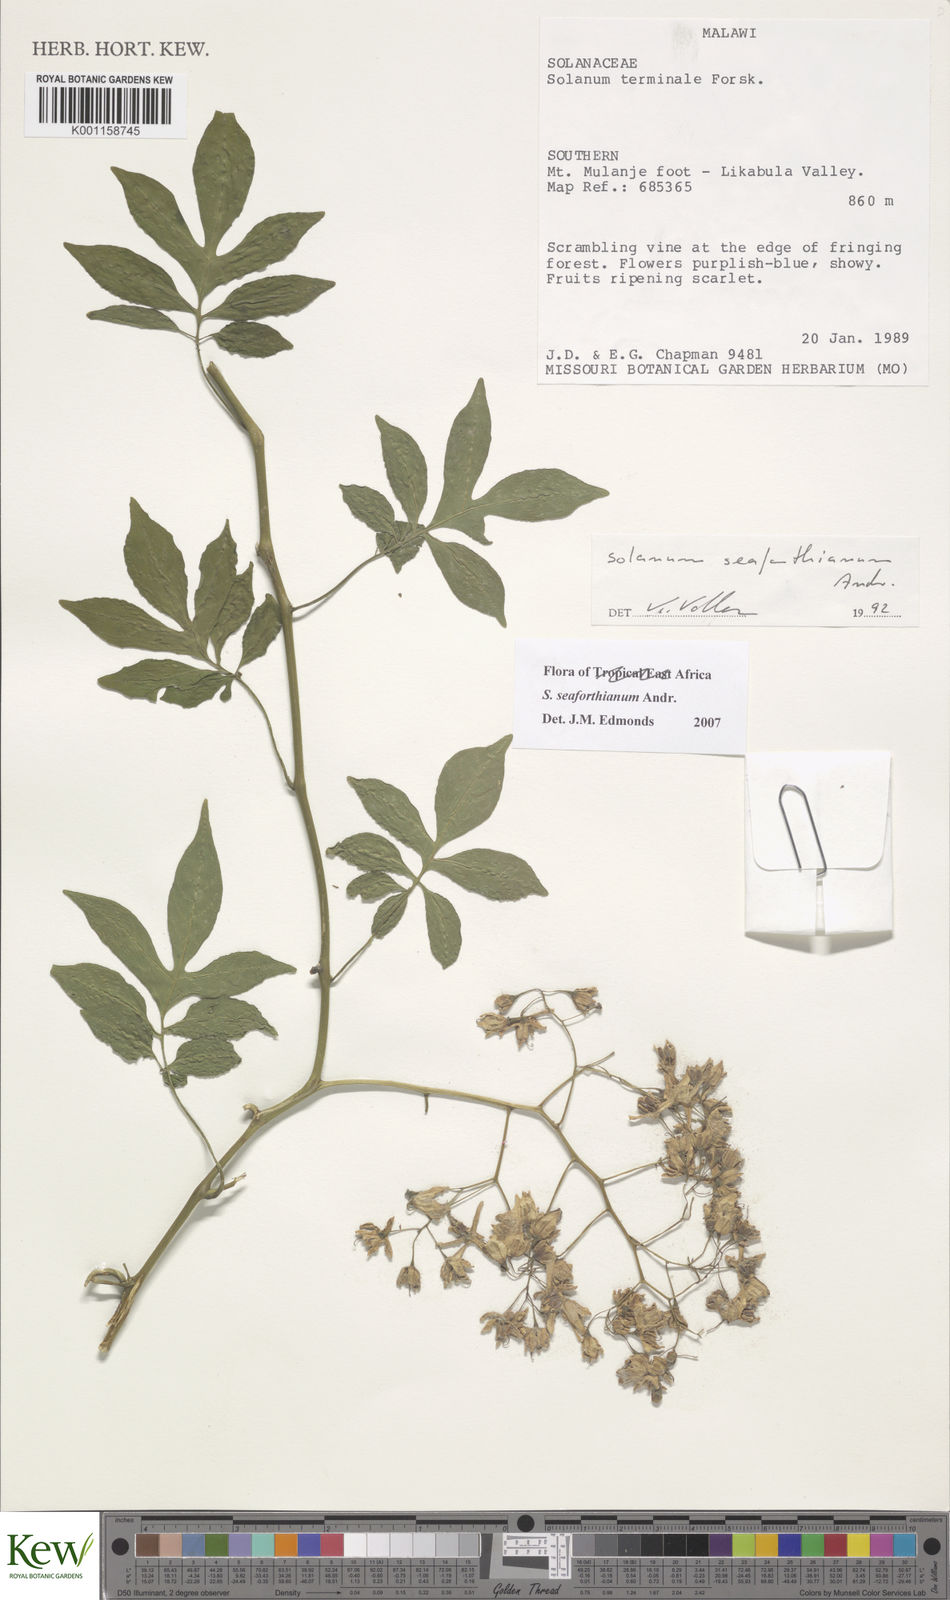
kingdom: Plantae
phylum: Tracheophyta
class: Magnoliopsida
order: Solanales
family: Solanaceae
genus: Solanum
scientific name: Solanum seaforthianum
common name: Brazilian nightshade
